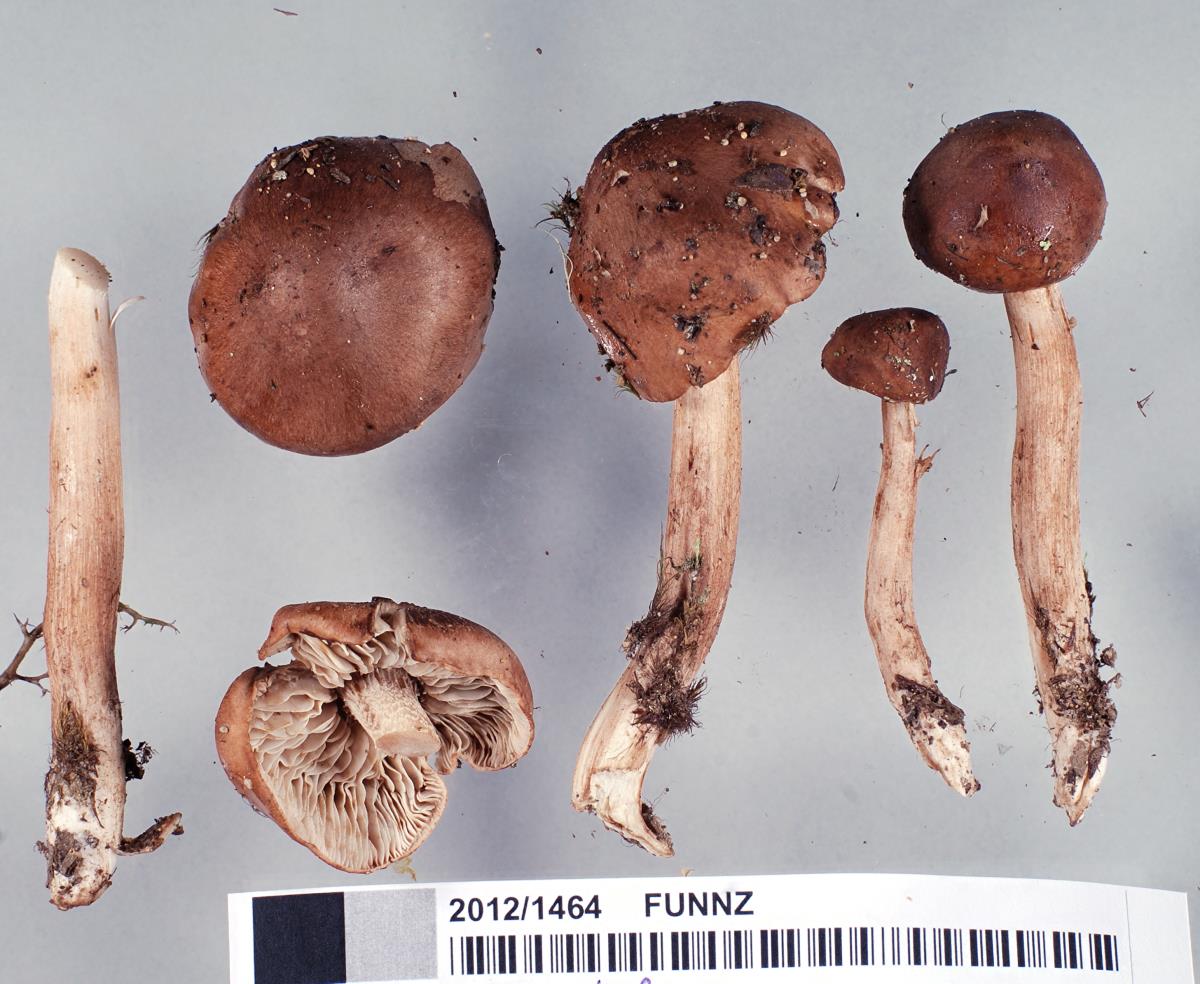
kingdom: Fungi
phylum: Basidiomycota
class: Agaricomycetes
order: Agaricales
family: Tricholomataceae
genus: Tricholoma
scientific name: Tricholoma elegans
